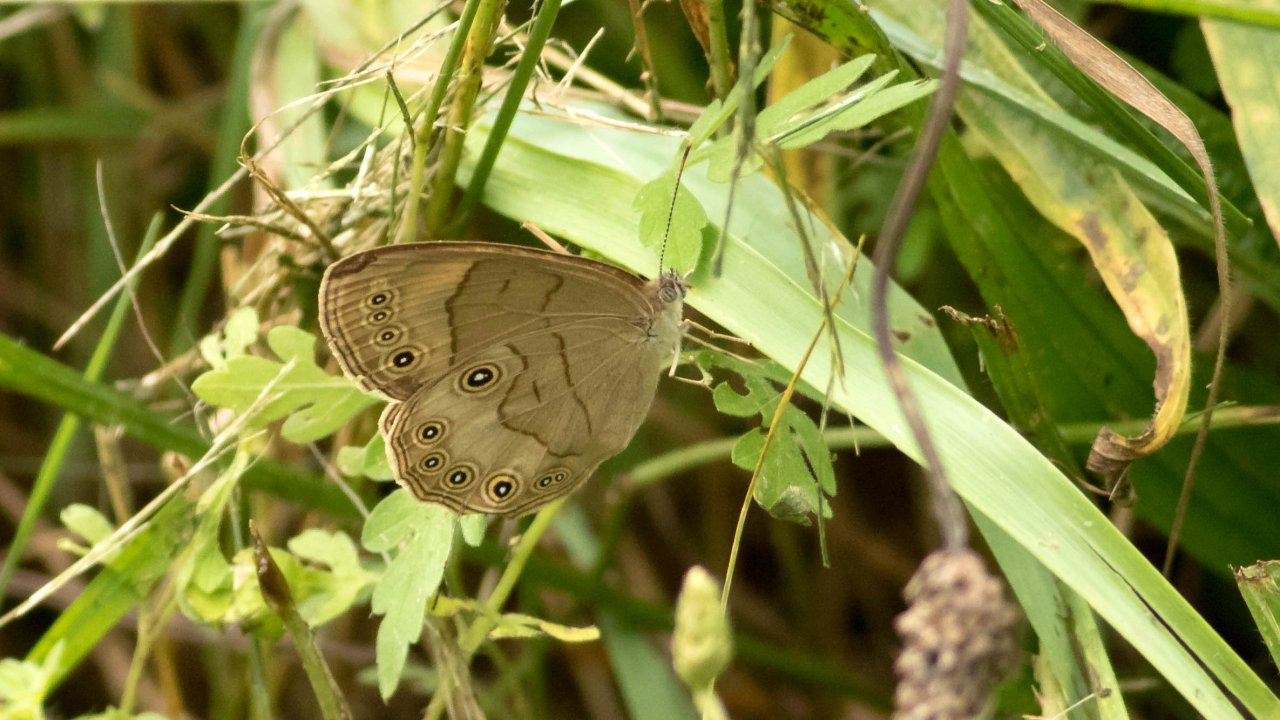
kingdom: Animalia
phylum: Arthropoda
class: Insecta
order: Lepidoptera
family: Nymphalidae
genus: Lethe
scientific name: Lethe eurydice
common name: Appalachian Eyed Brown
